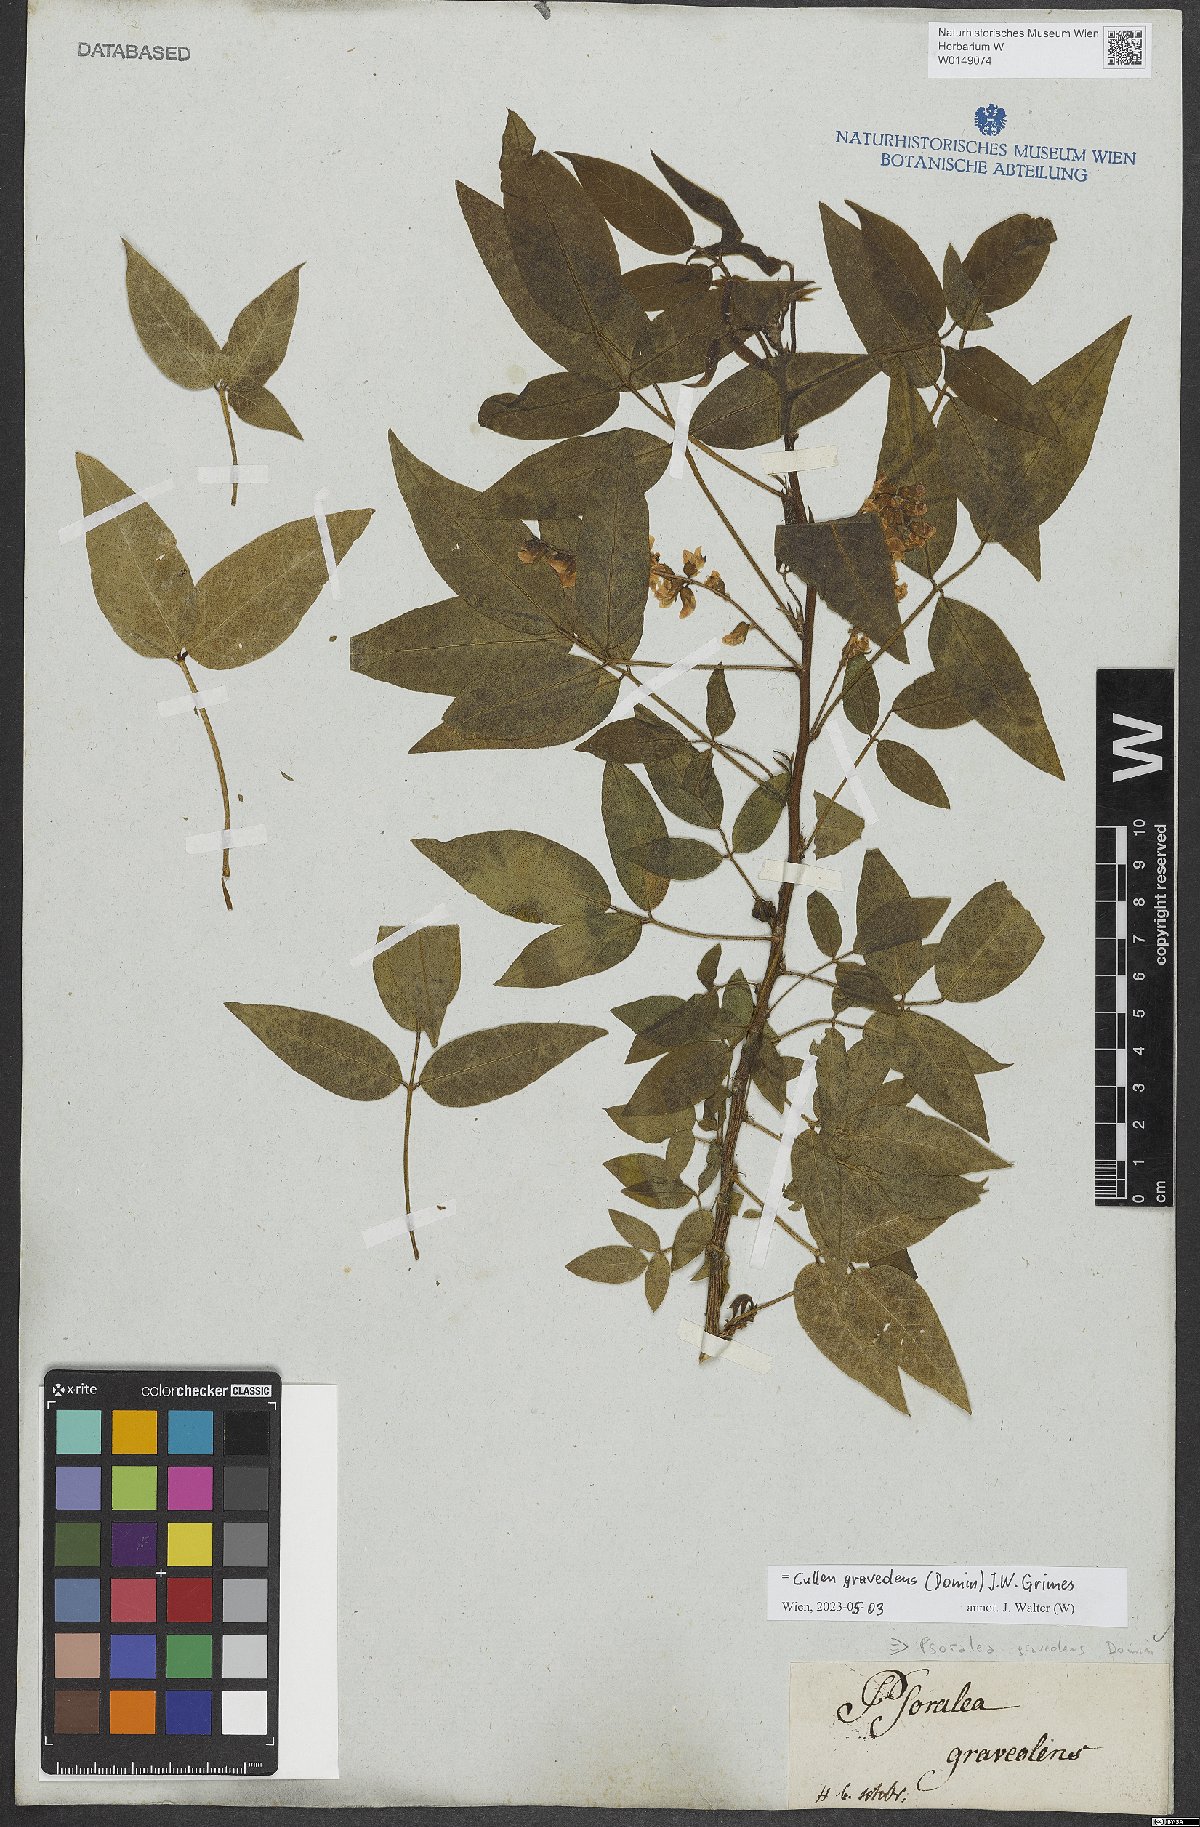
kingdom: Plantae
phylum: Tracheophyta
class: Magnoliopsida
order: Fabales
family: Fabaceae
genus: Cullen
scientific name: Cullen graveolens
